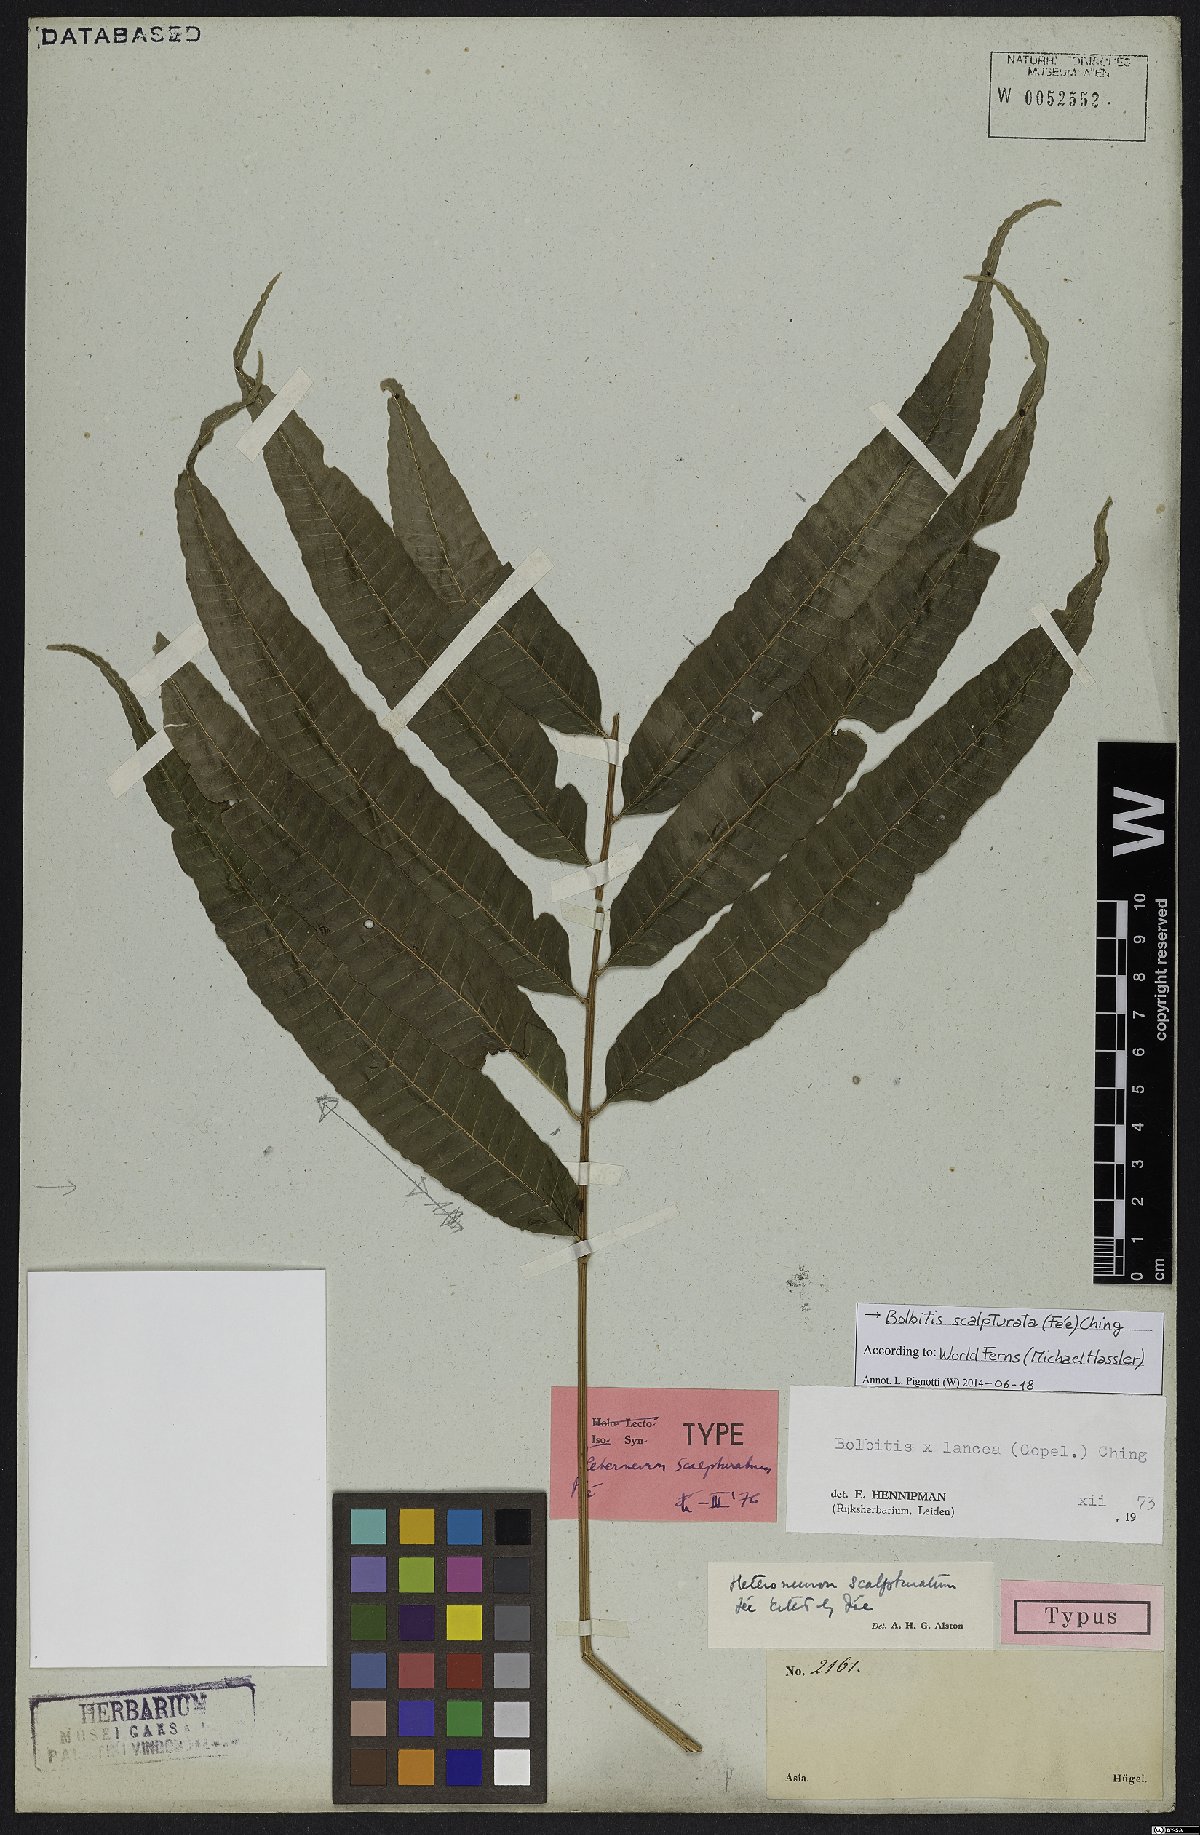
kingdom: Plantae
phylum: Tracheophyta
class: Polypodiopsida
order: Polypodiales
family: Dryopteridaceae
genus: Bolbitis
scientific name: Bolbitis scalpturata
